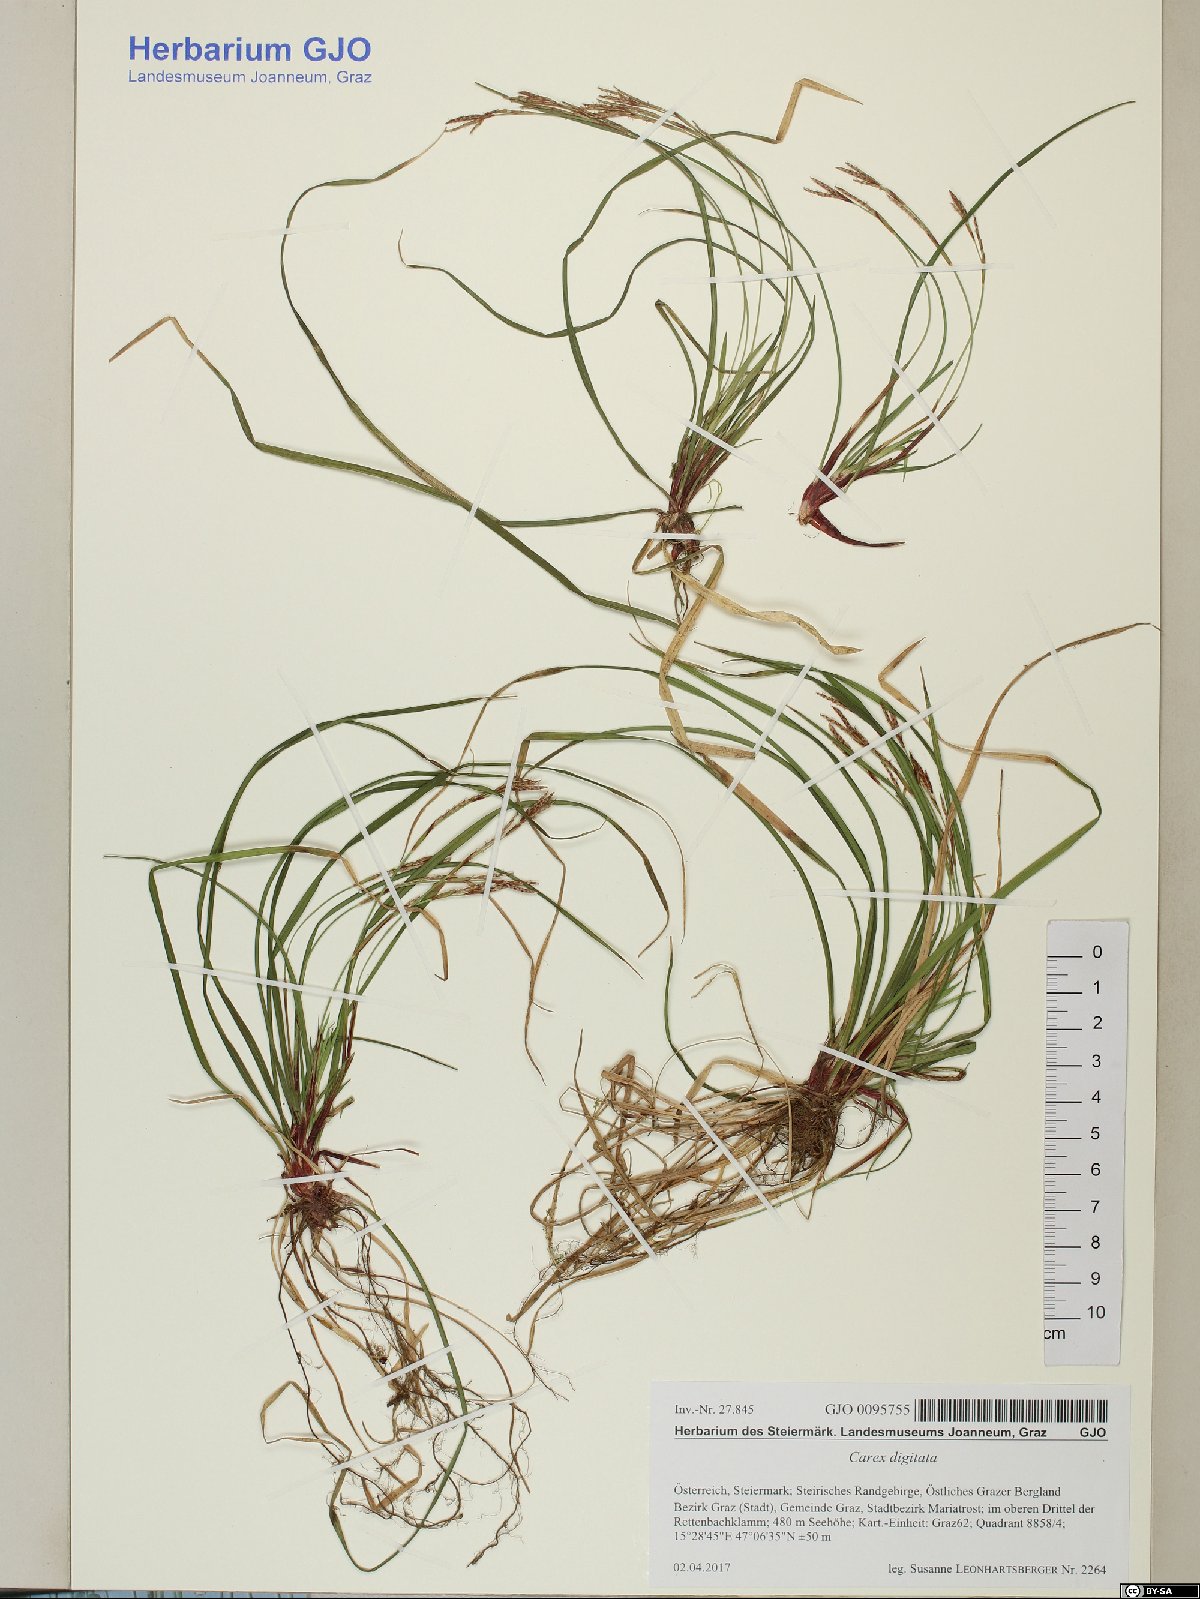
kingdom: Plantae
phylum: Tracheophyta
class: Liliopsida
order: Poales
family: Cyperaceae
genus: Carex
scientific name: Carex digitata
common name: Fingered sedge
